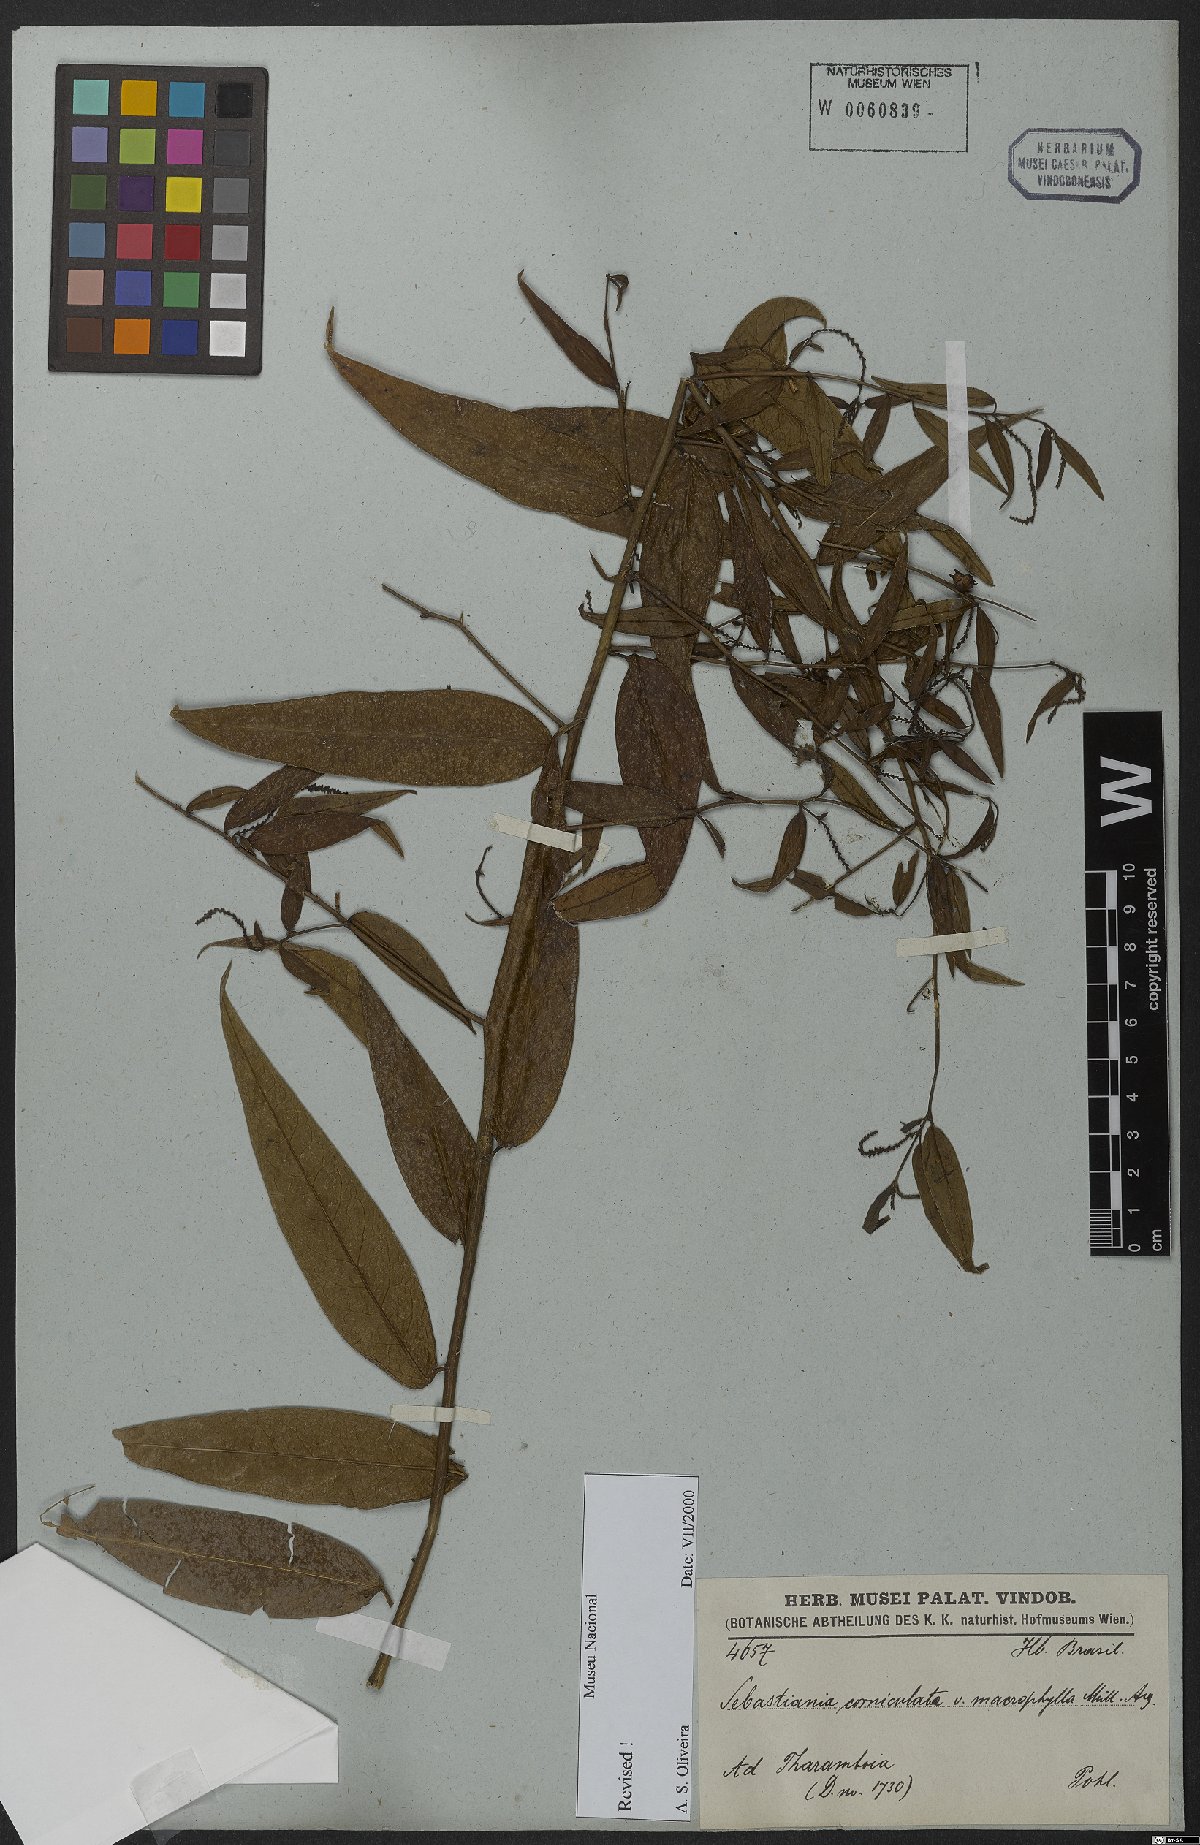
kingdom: Plantae
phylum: Tracheophyta
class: Magnoliopsida
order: Malpighiales
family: Euphorbiaceae
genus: Microstachys
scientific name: Microstachys hispida
